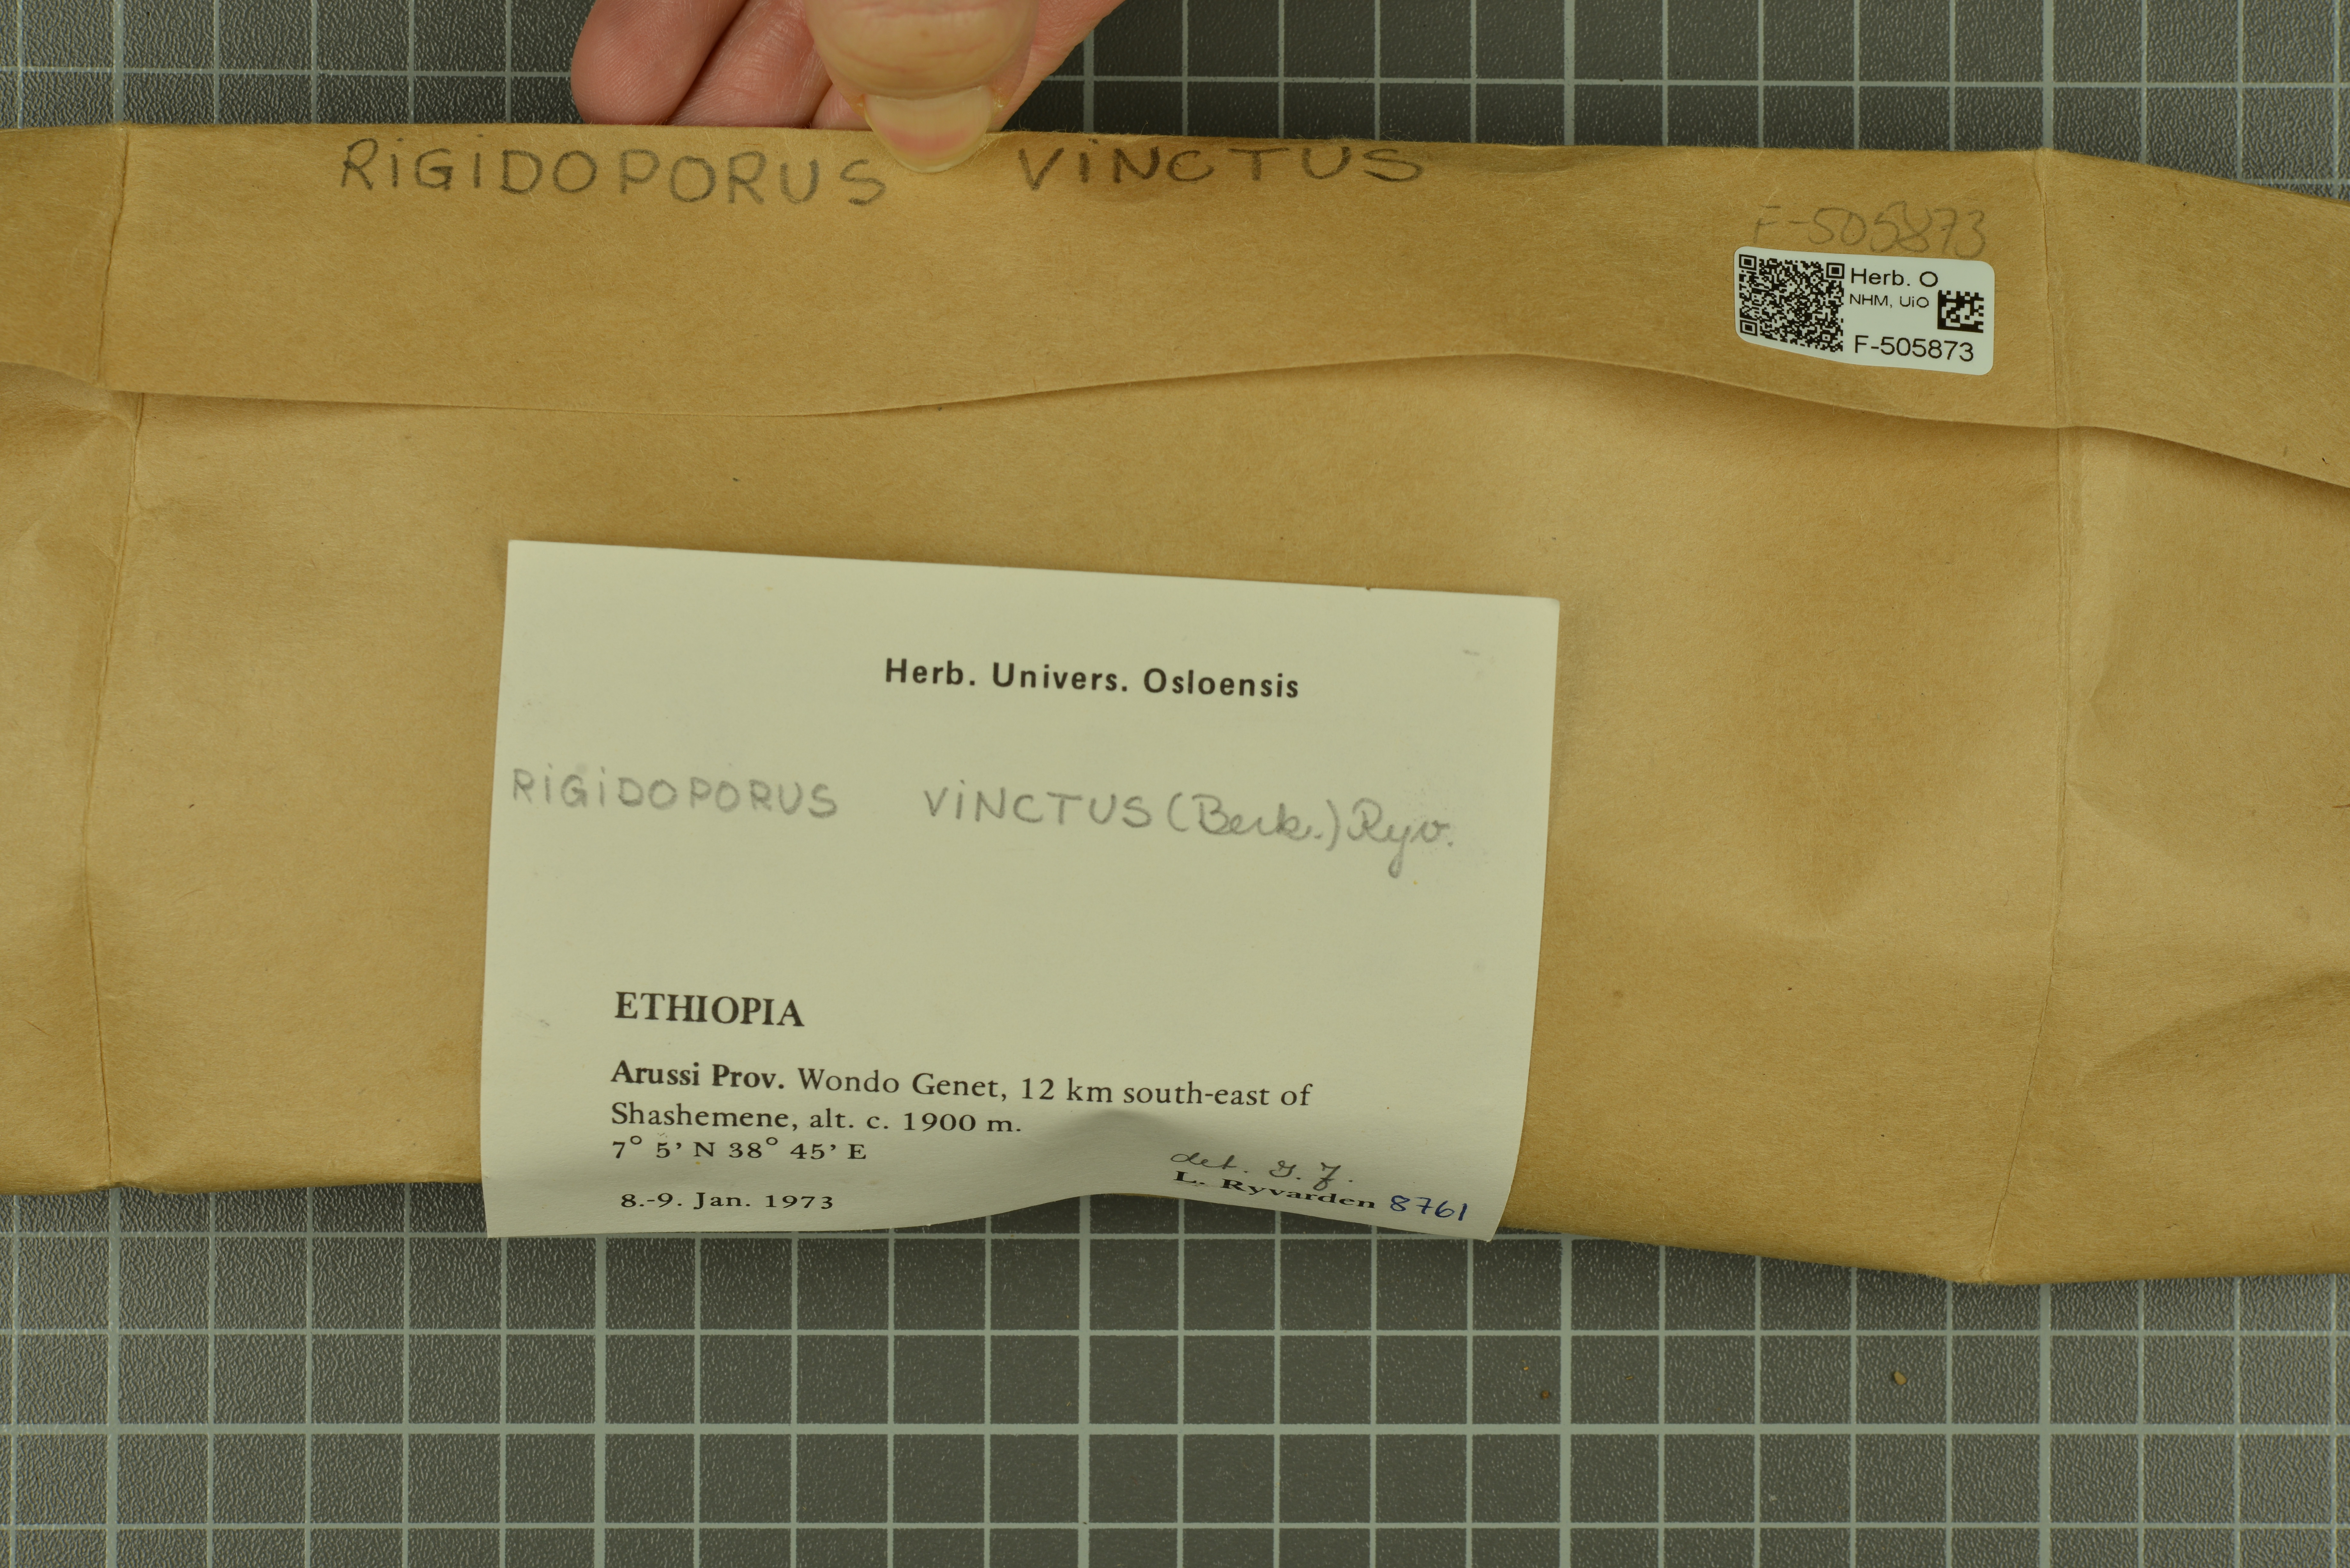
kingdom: Fungi
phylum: Basidiomycota
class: Agaricomycetes
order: Polyporales
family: Meripilaceae
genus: Rigidoporus
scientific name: Rigidoporus vinctus
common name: Corm dry rot
